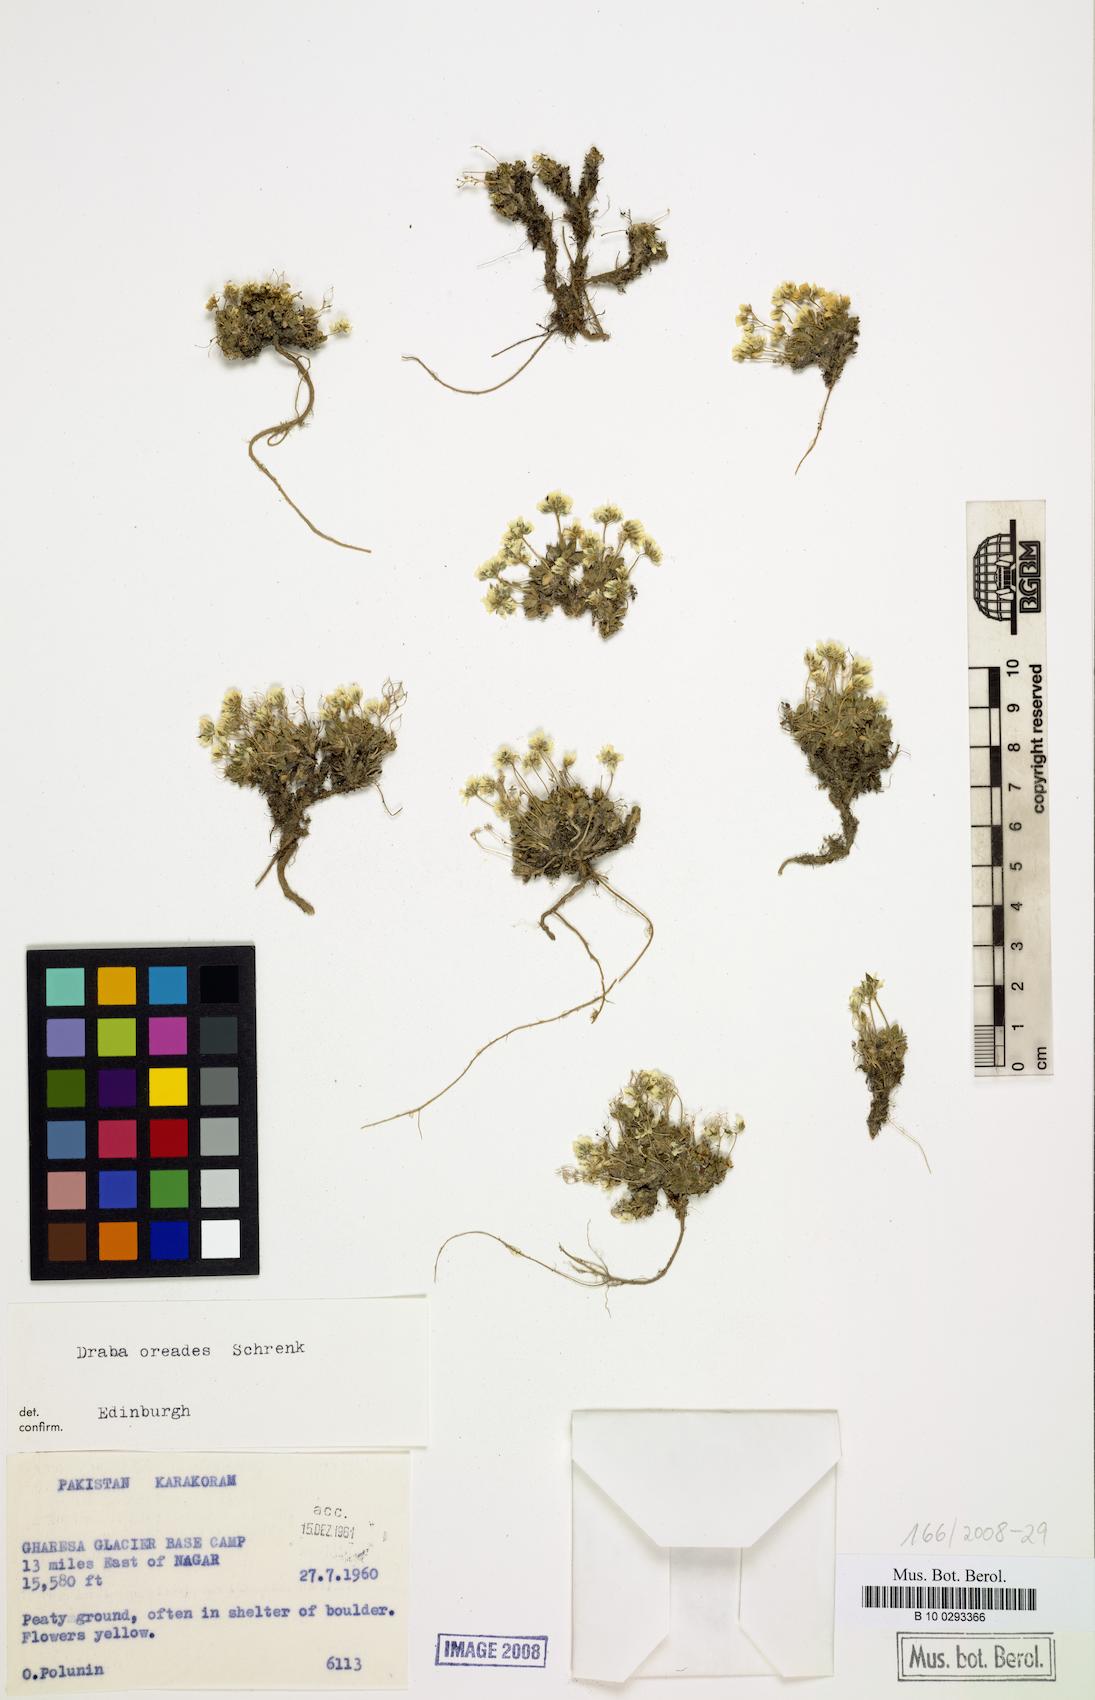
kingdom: Plantae
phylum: Tracheophyta
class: Magnoliopsida
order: Brassicales
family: Brassicaceae
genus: Draba
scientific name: Draba oreades
